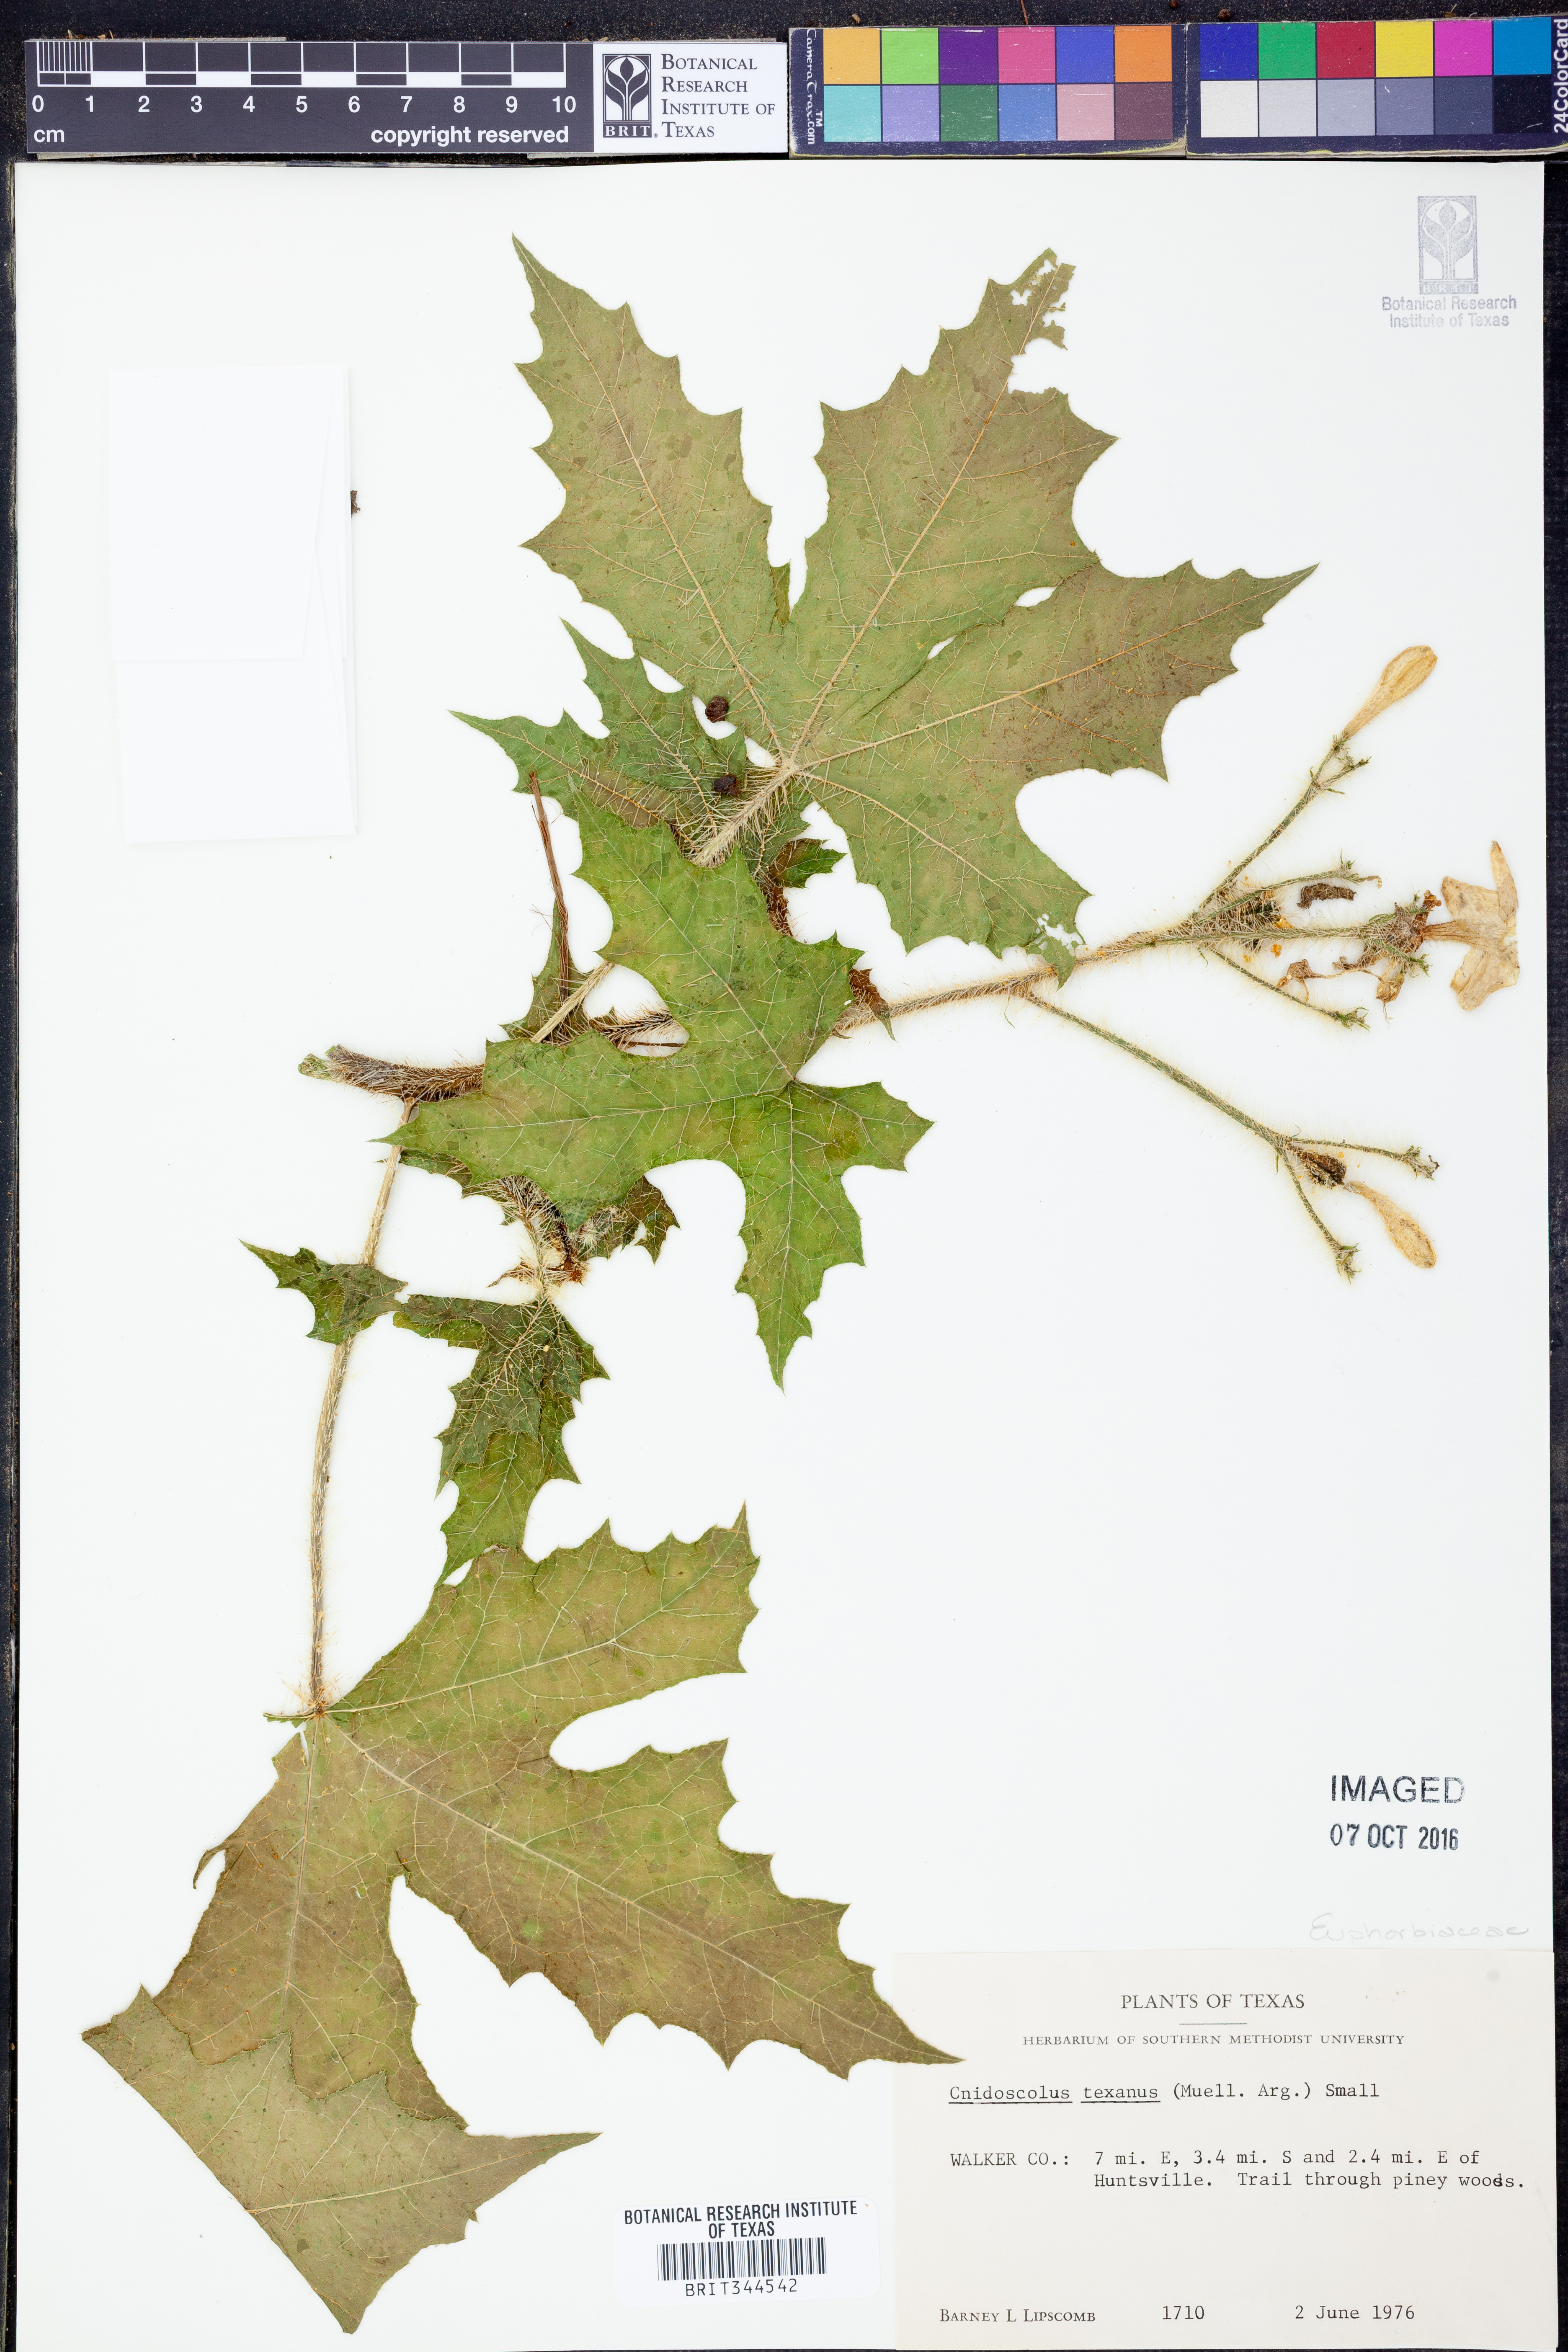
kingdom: Plantae
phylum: Tracheophyta
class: Magnoliopsida
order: Malpighiales
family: Euphorbiaceae
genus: Cnidoscolus
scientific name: Cnidoscolus texanus
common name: Texas bull-nettle
